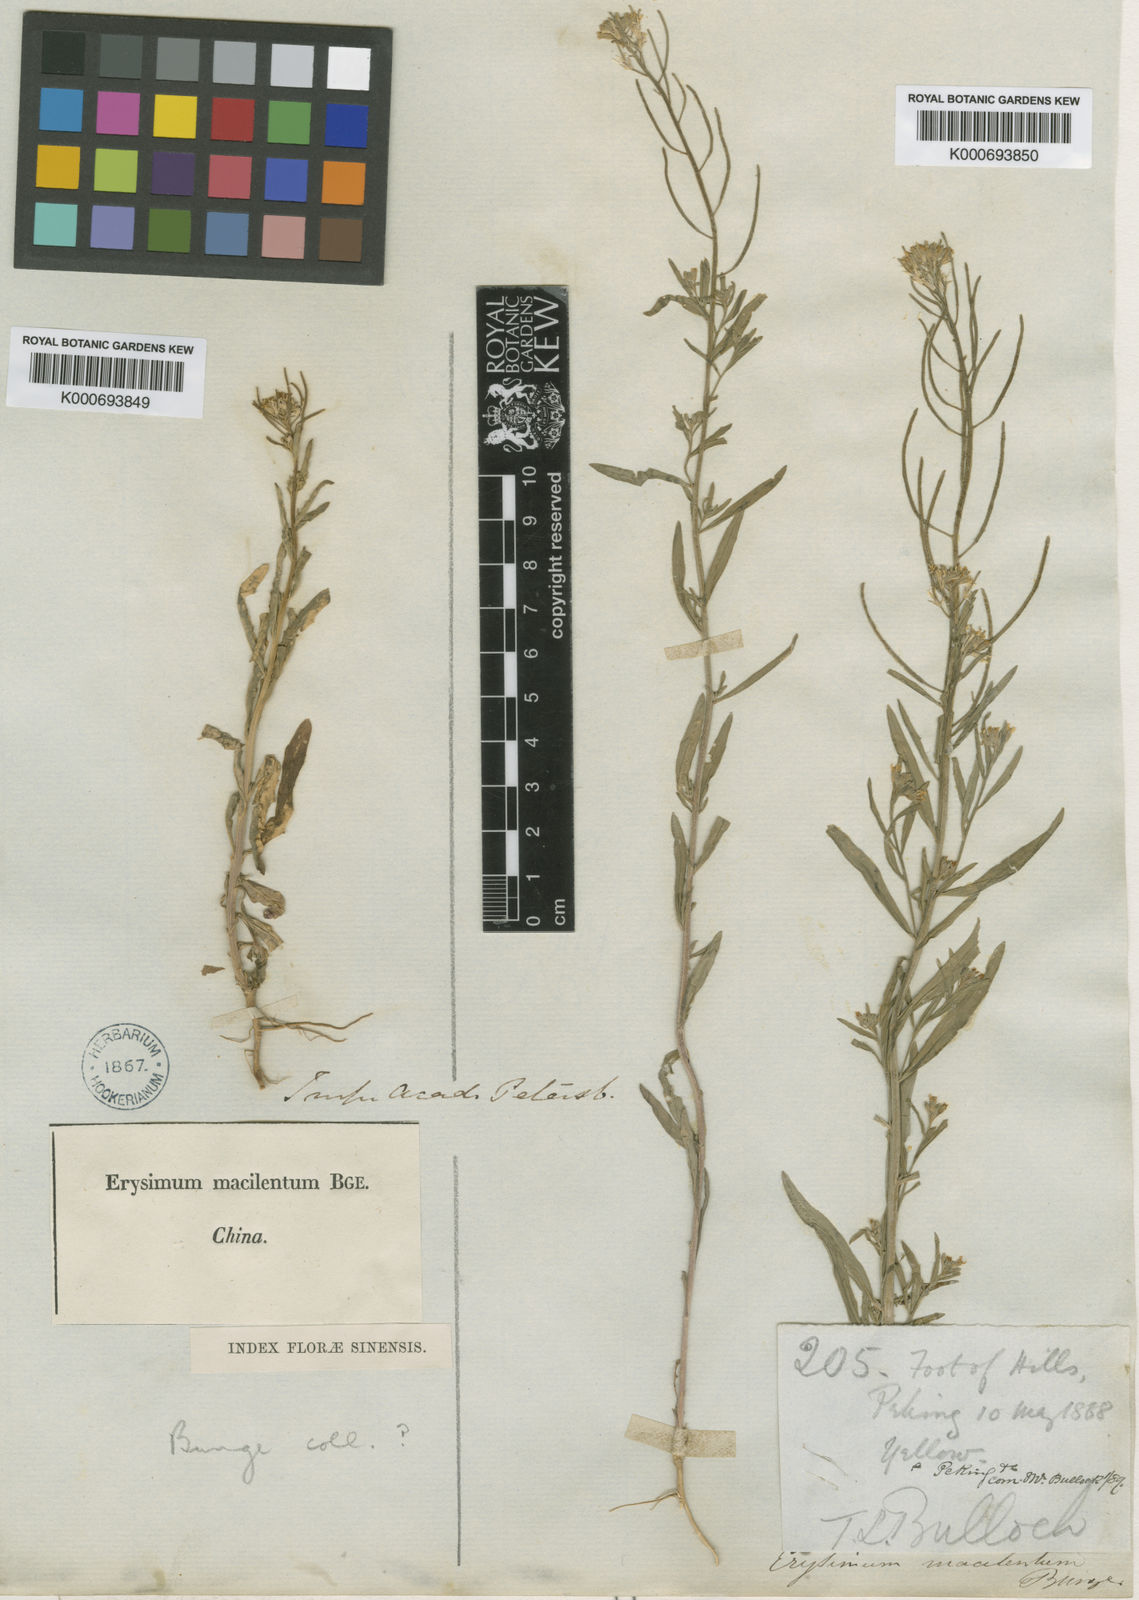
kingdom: Plantae
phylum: Tracheophyta
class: Magnoliopsida
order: Brassicales
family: Brassicaceae
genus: Erysimum
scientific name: Erysimum macilentum
